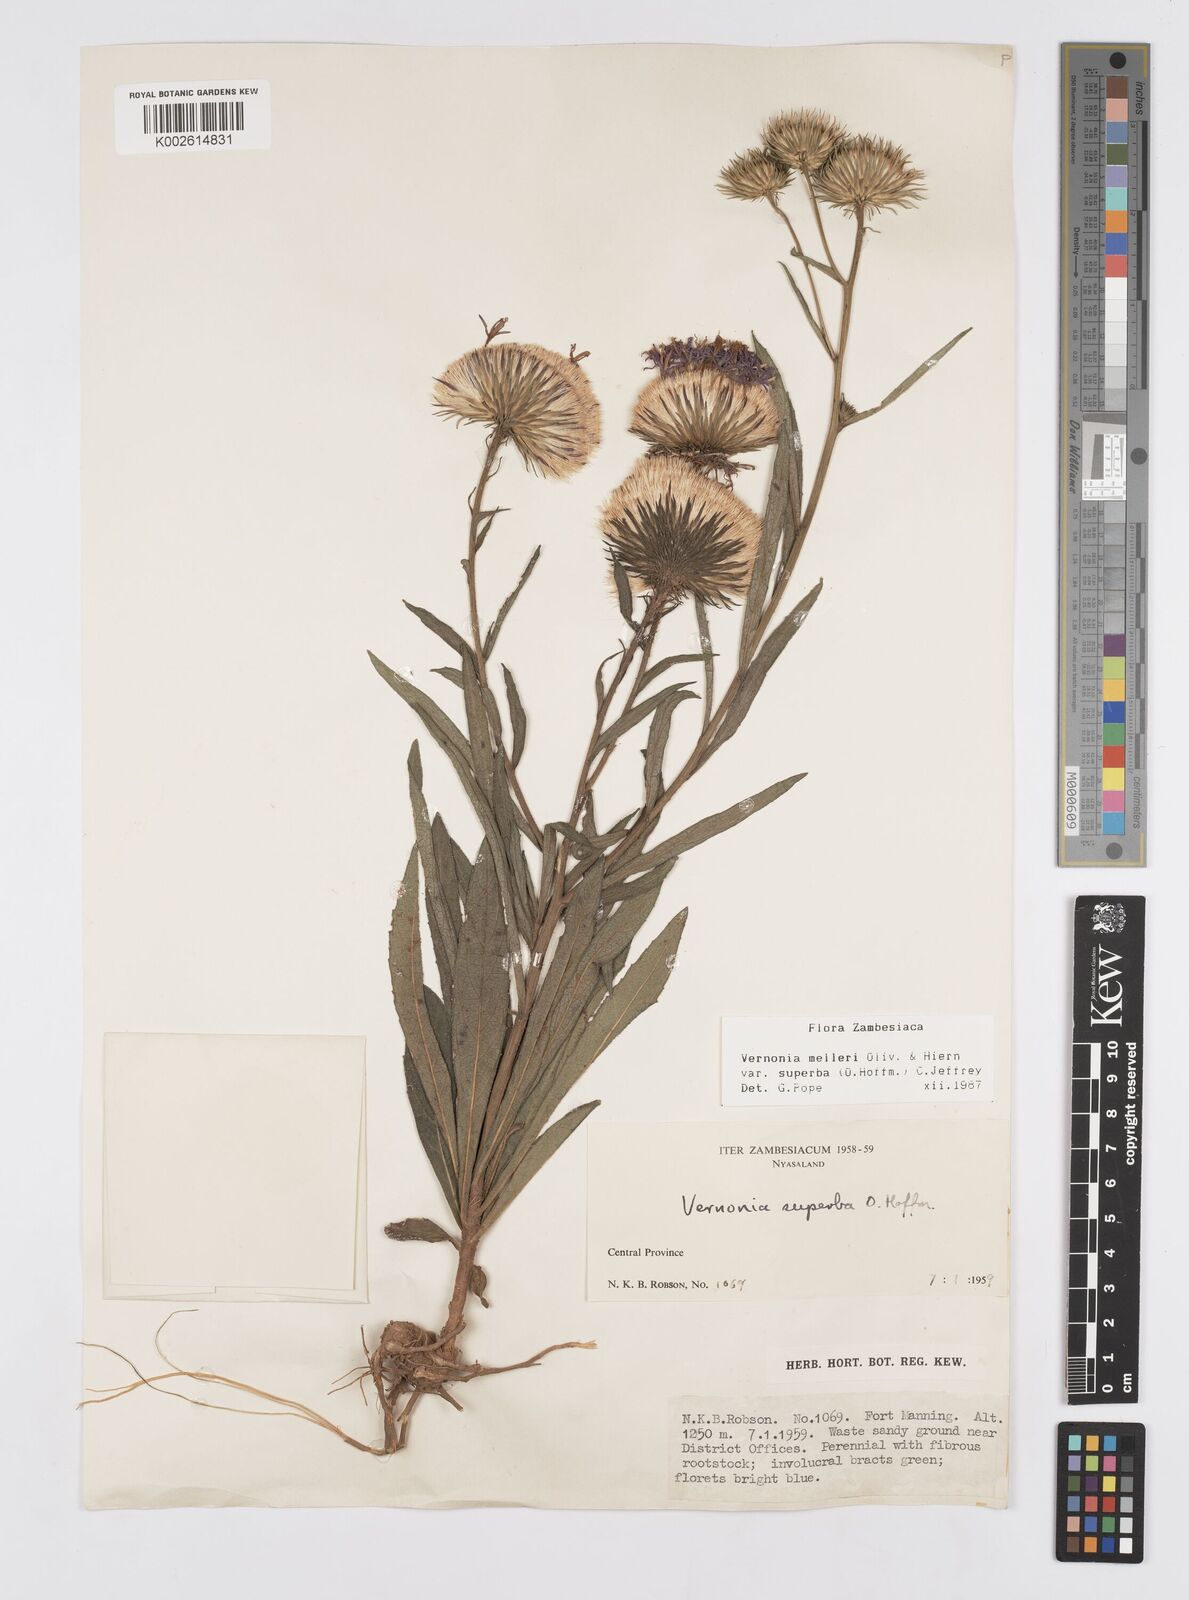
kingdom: Plantae
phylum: Tracheophyta
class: Magnoliopsida
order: Asterales
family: Asteraceae
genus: Linzia
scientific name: Linzia melleri
